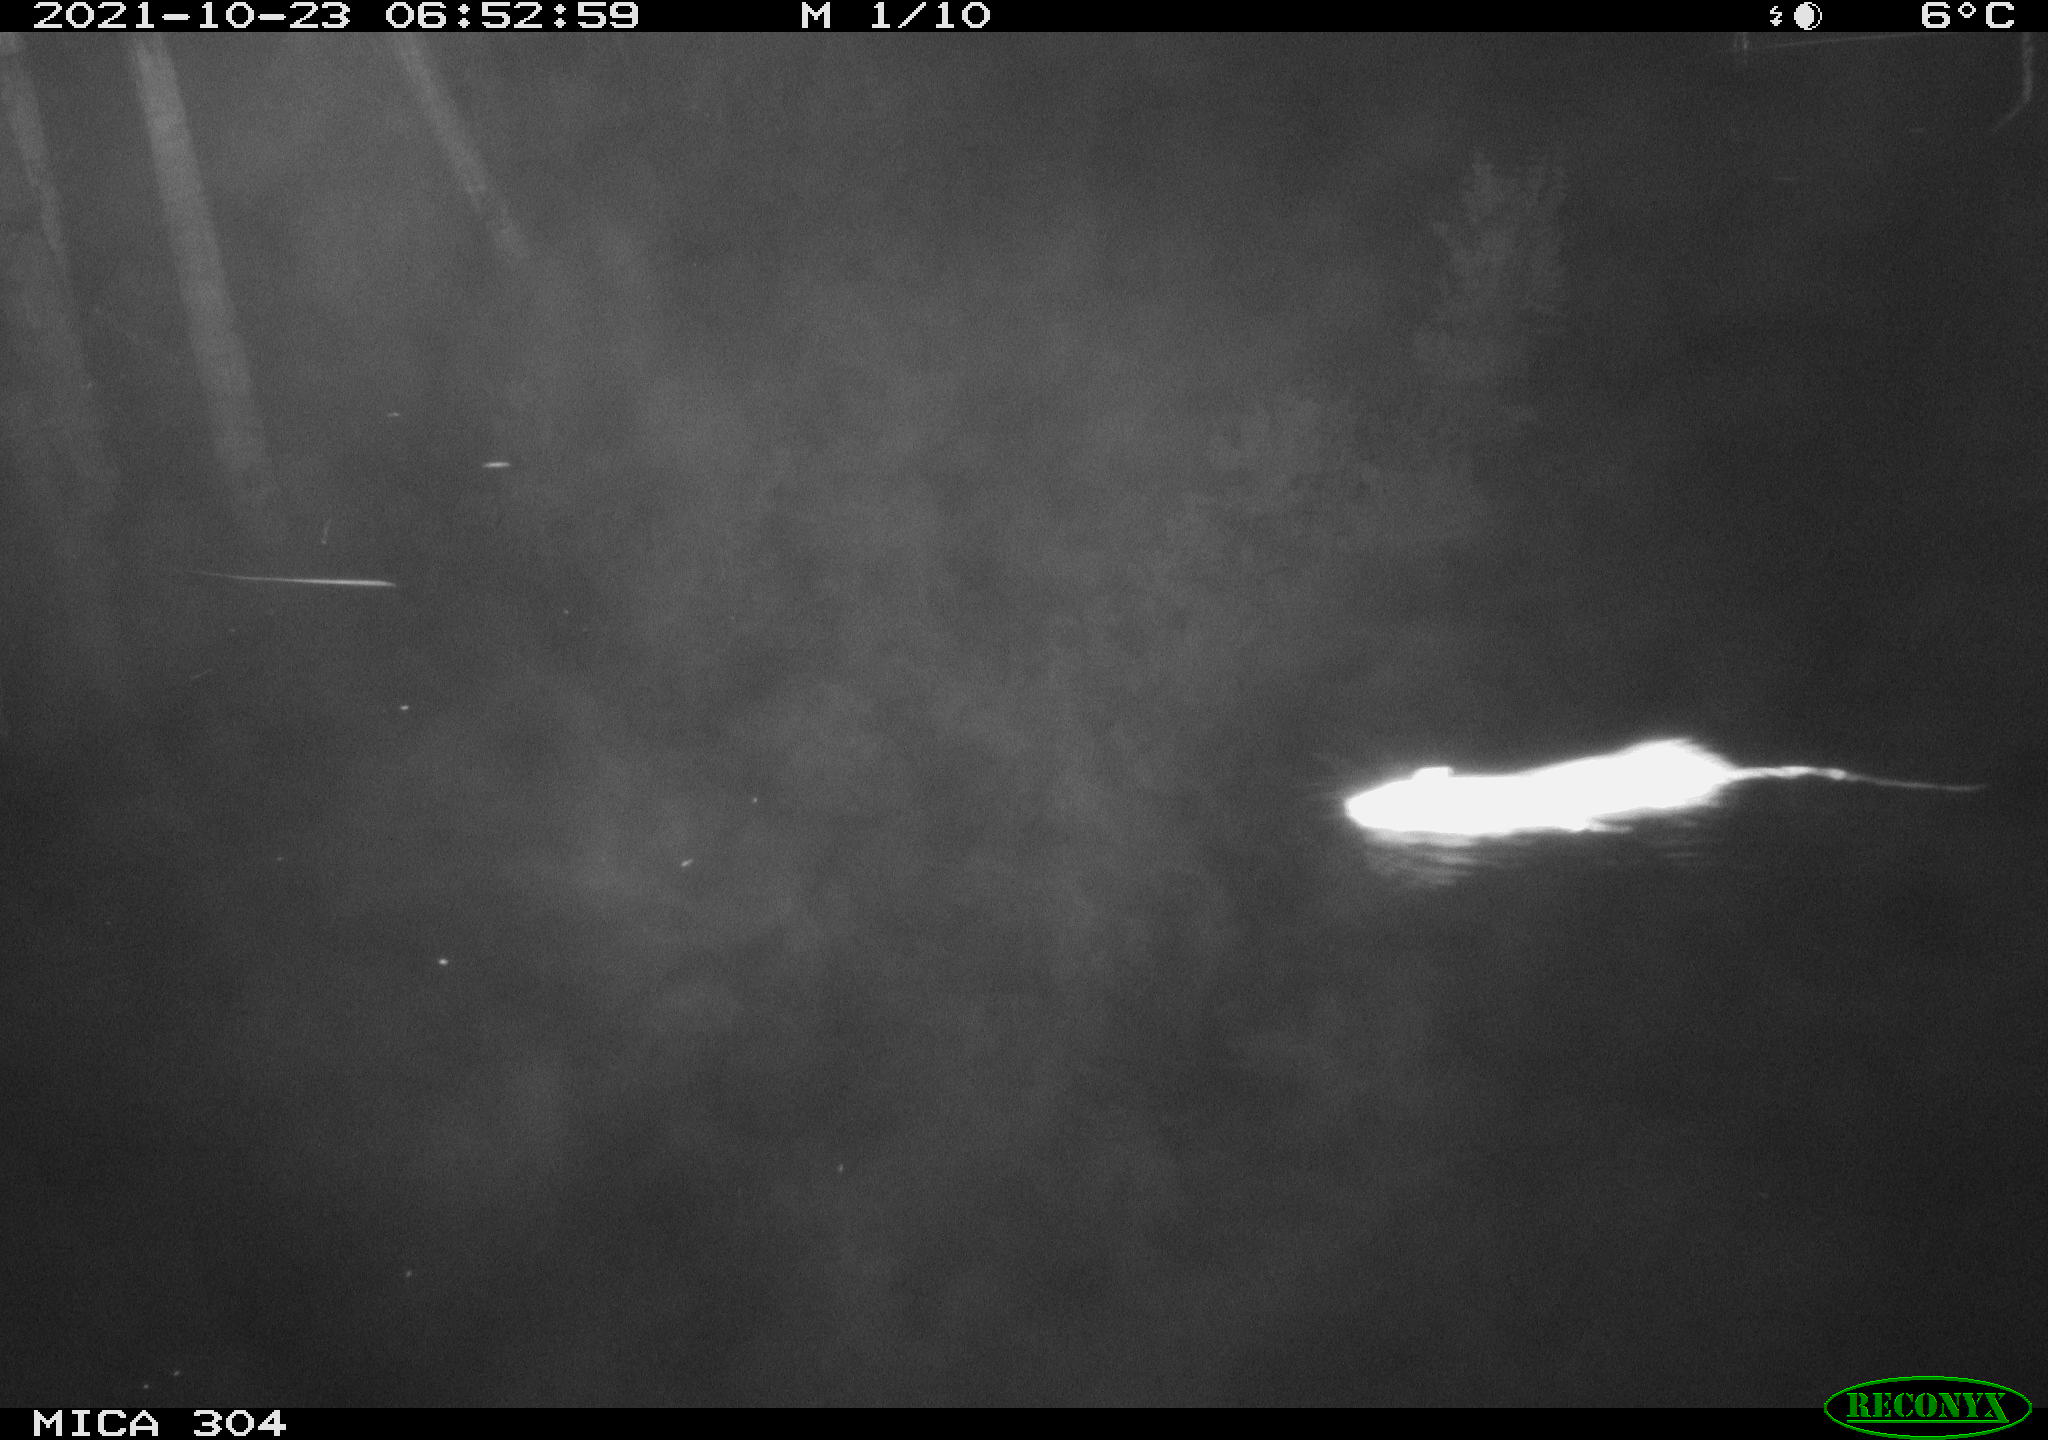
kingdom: Animalia
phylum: Chordata
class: Mammalia
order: Rodentia
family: Muridae
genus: Rattus
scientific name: Rattus norvegicus
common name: Brown rat
